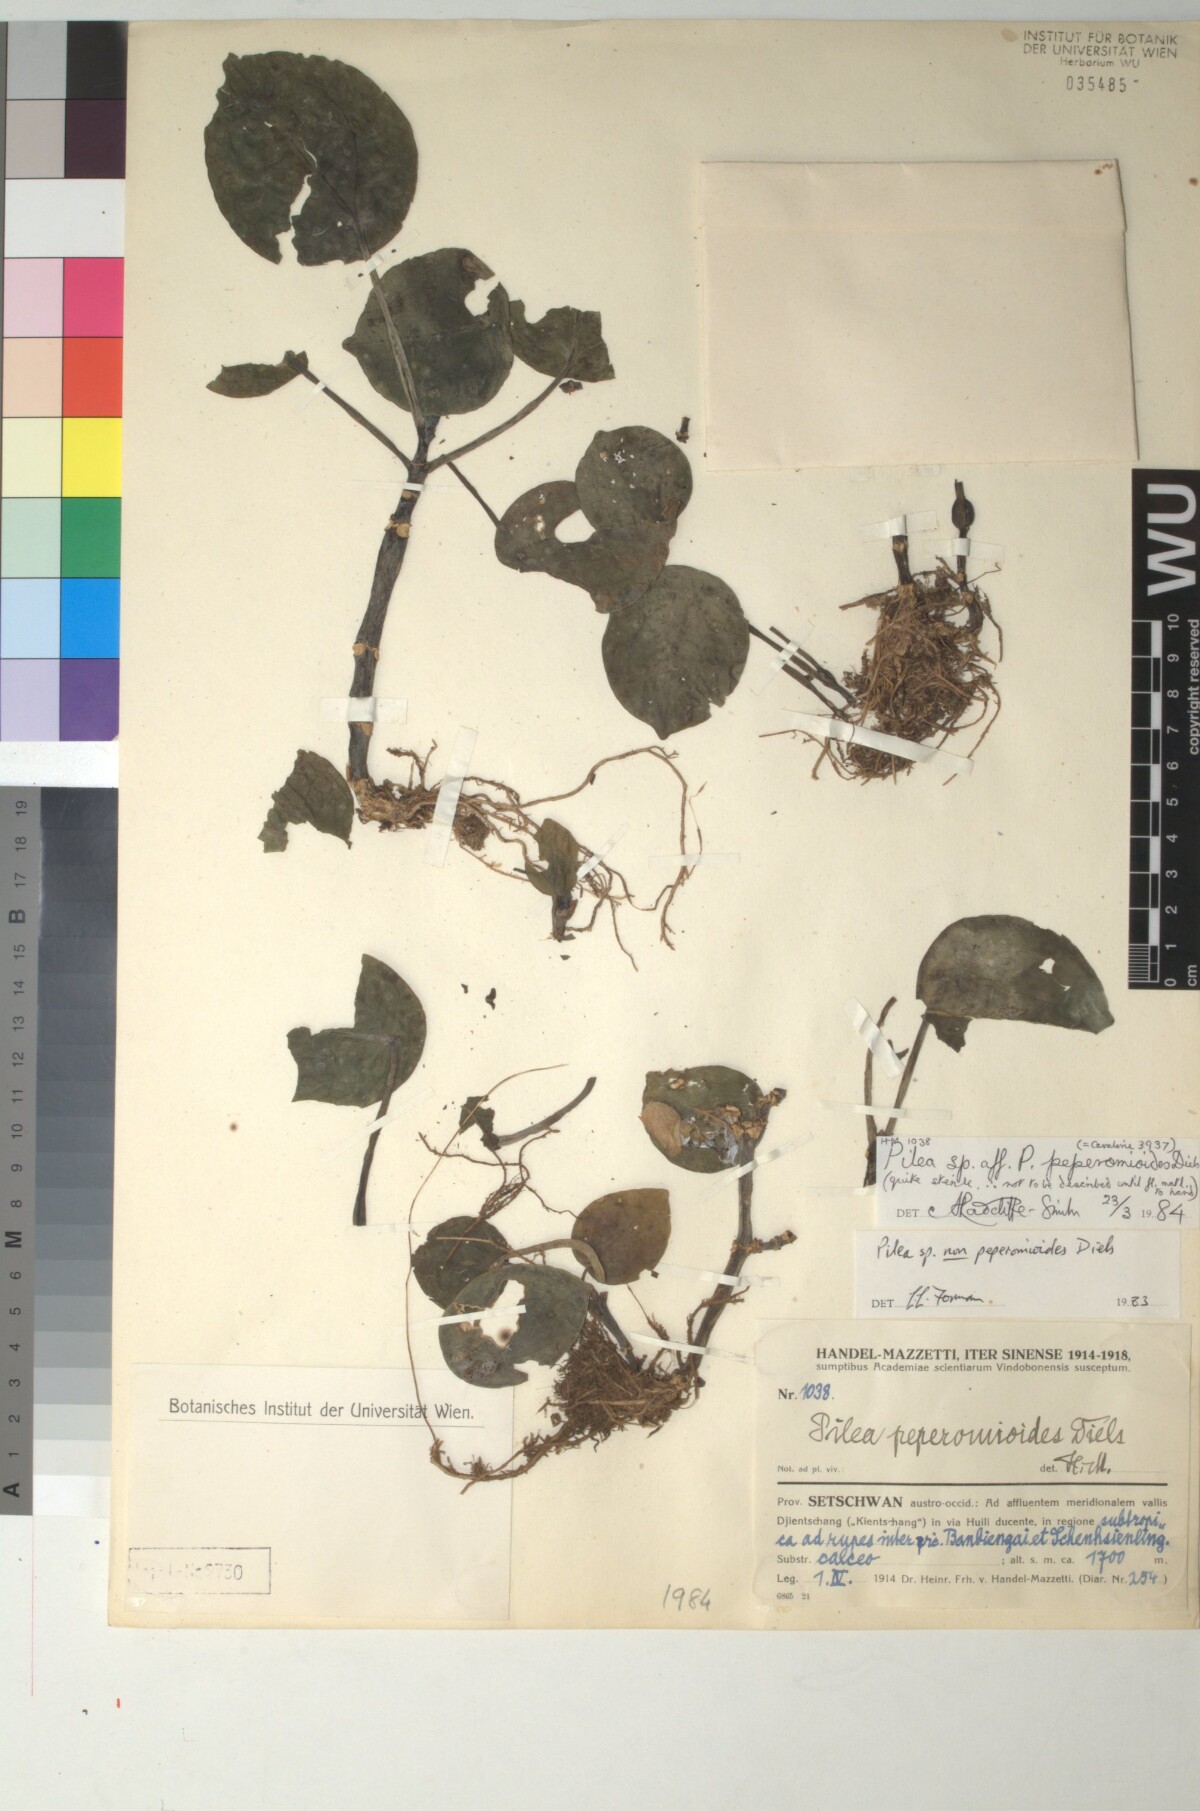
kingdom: Plantae
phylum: Tracheophyta
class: Magnoliopsida
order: Rosales
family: Urticaceae
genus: Pilea
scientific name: Pilea peperomioides
